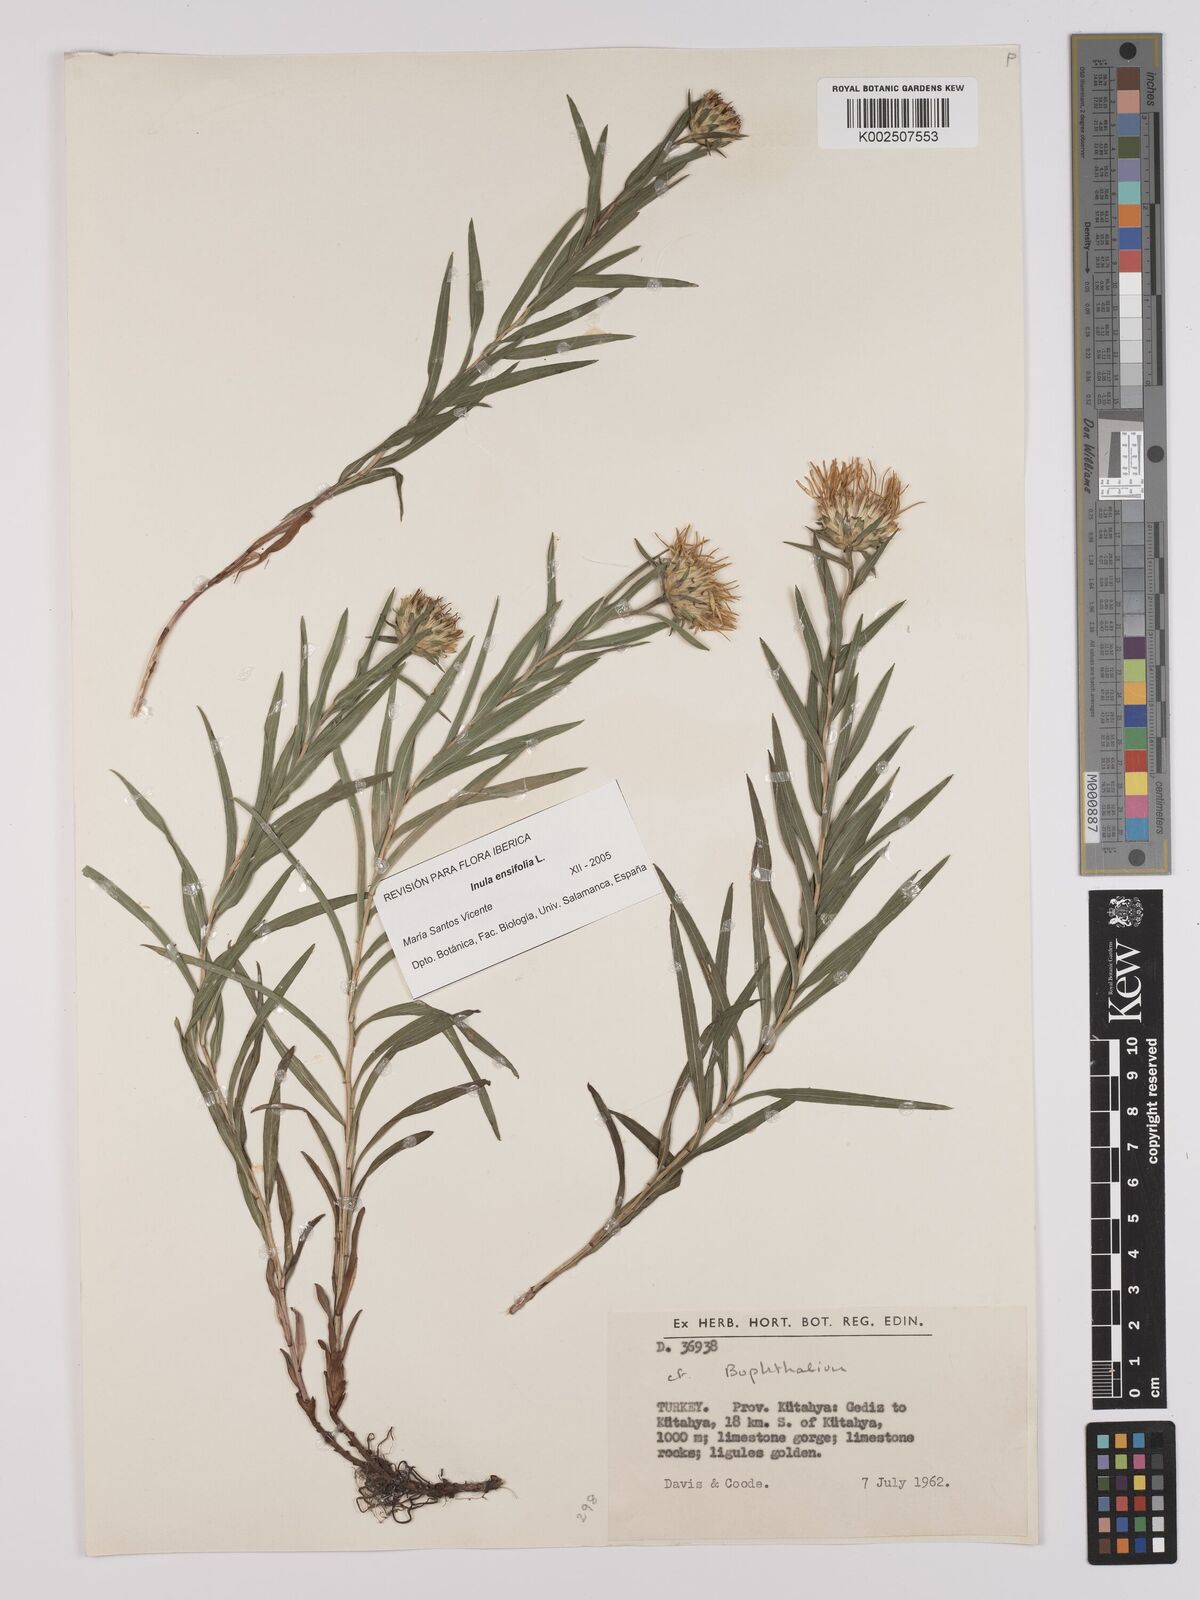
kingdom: Plantae
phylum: Tracheophyta
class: Magnoliopsida
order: Asterales
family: Asteraceae
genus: Inula
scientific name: Inula
